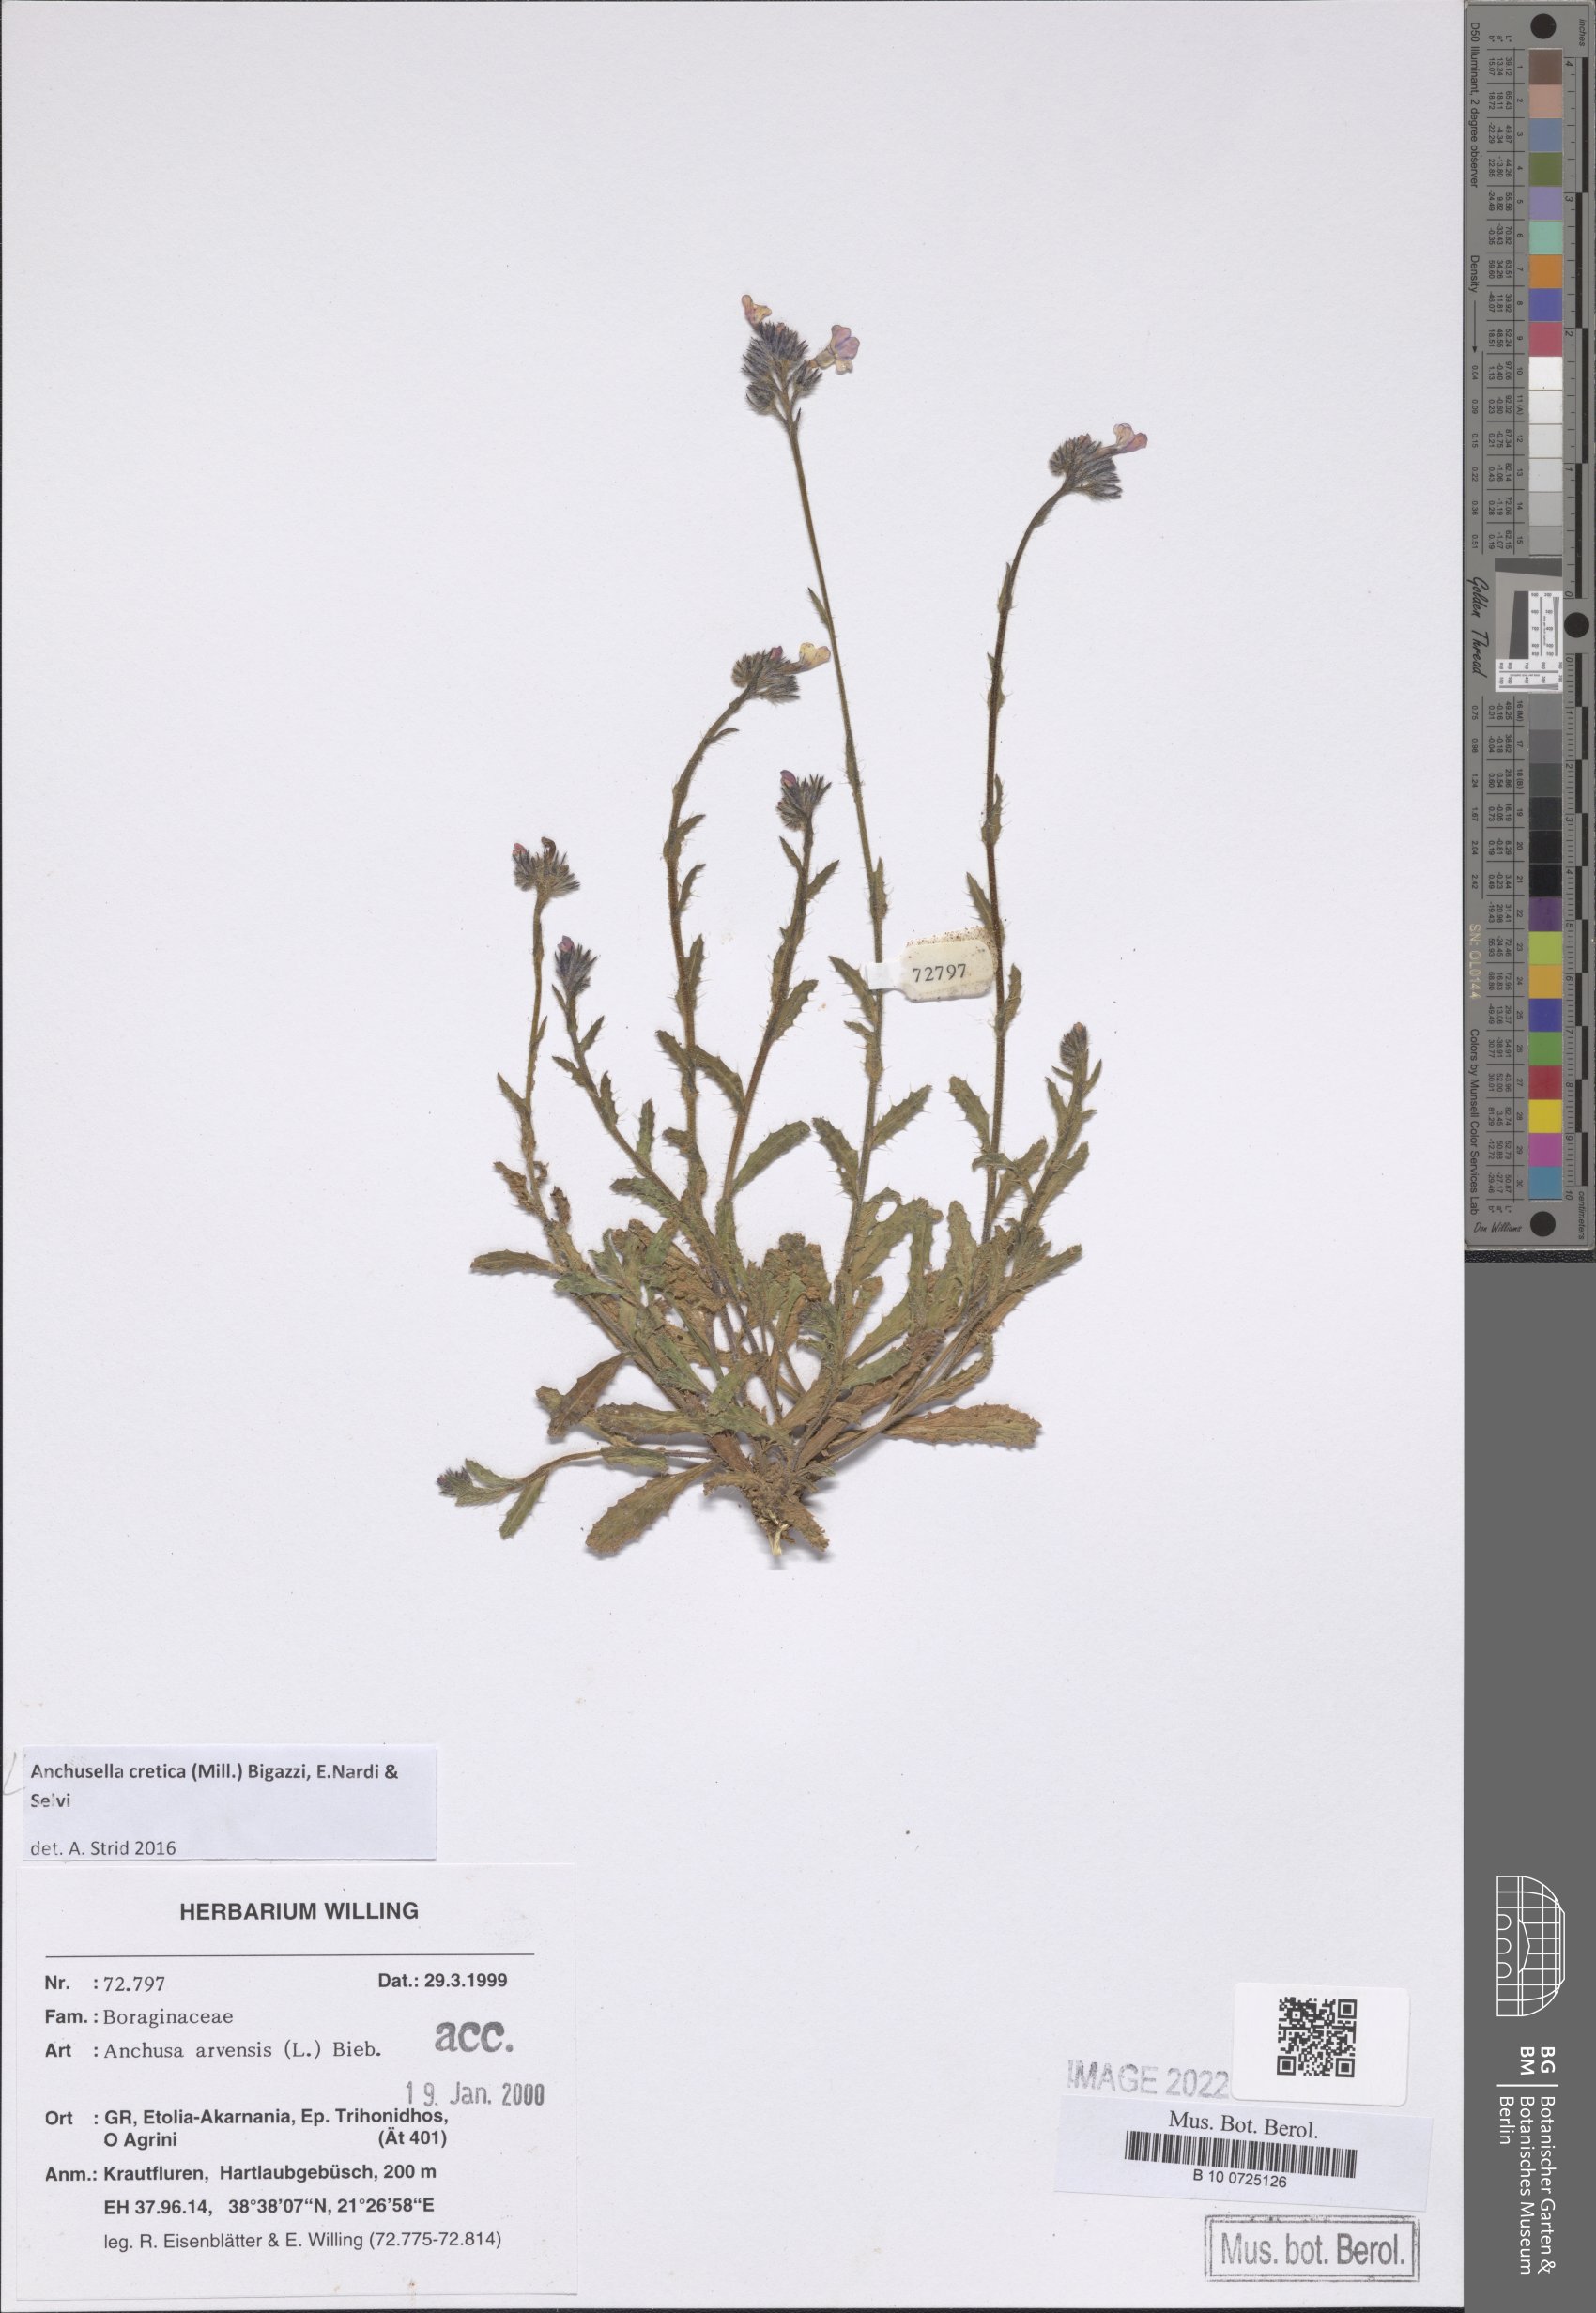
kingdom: Plantae
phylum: Tracheophyta
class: Magnoliopsida
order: Boraginales
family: Boraginaceae
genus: Anchusella
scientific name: Anchusella cretica
